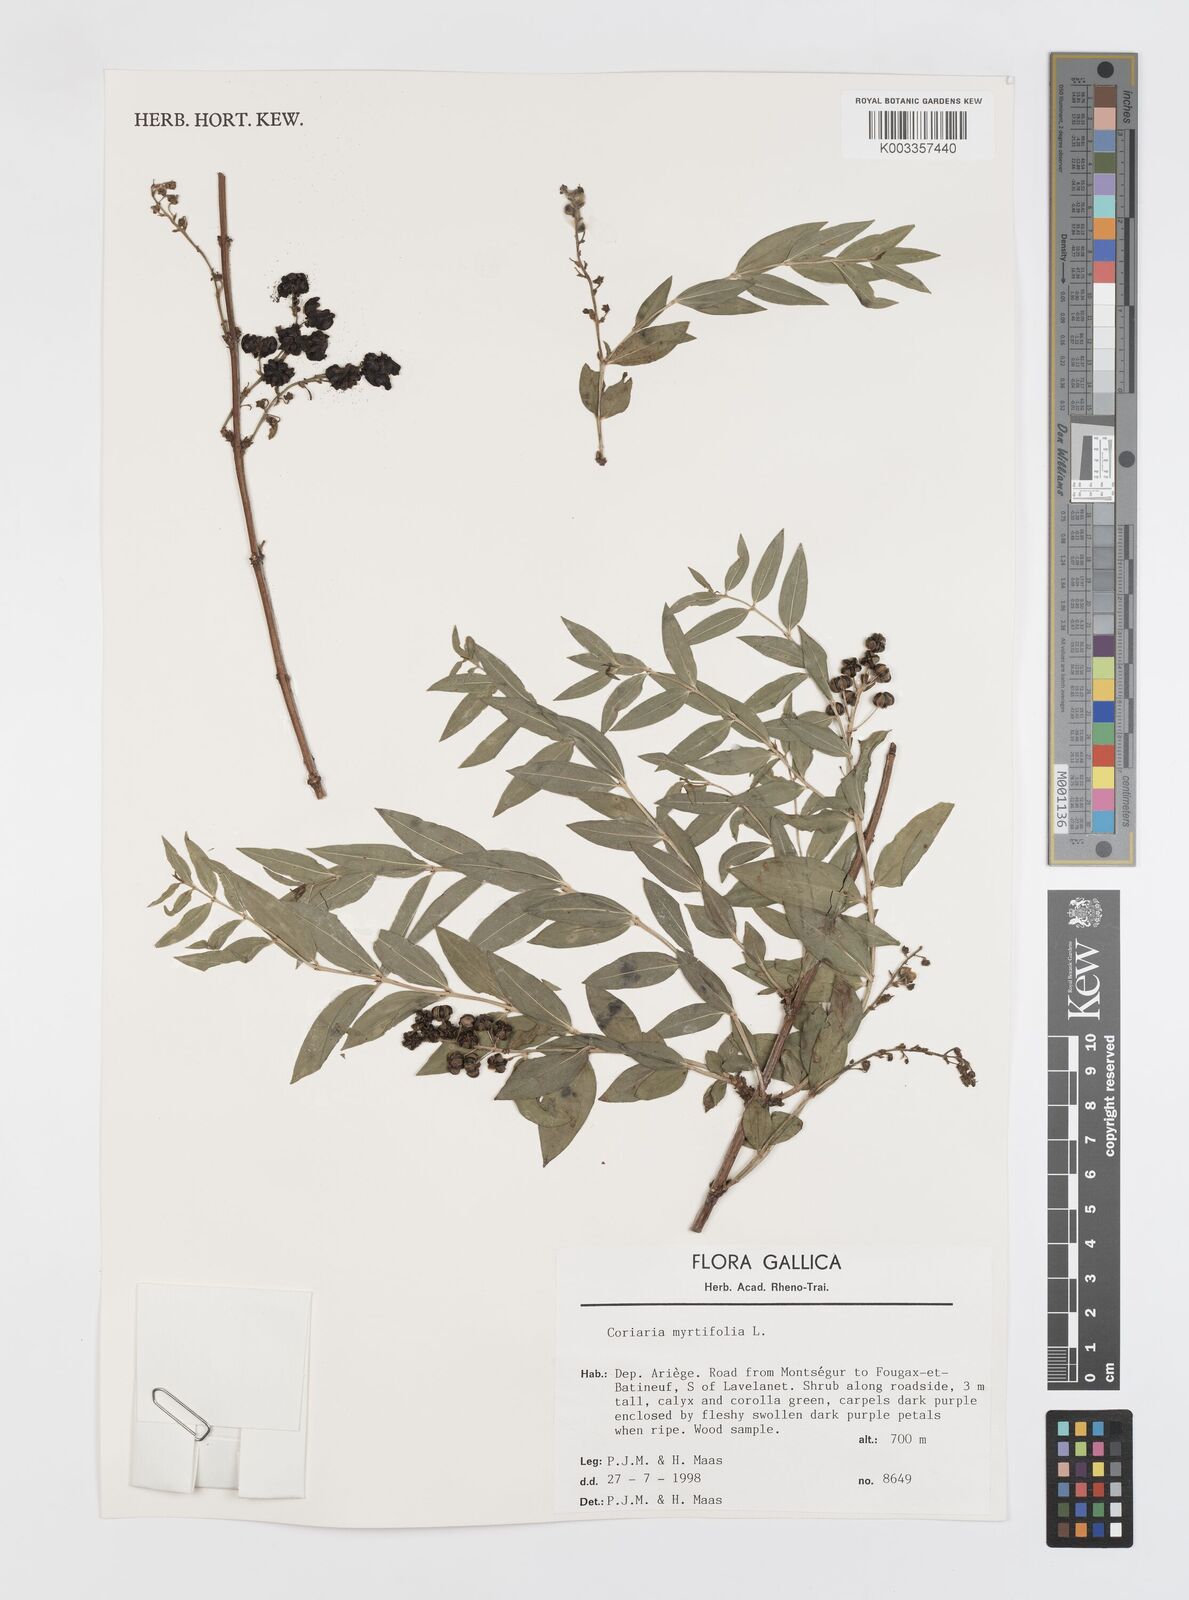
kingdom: Plantae
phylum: Tracheophyta
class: Magnoliopsida
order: Cucurbitales
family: Coriariaceae
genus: Coriaria
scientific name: Coriaria myrtifolia
